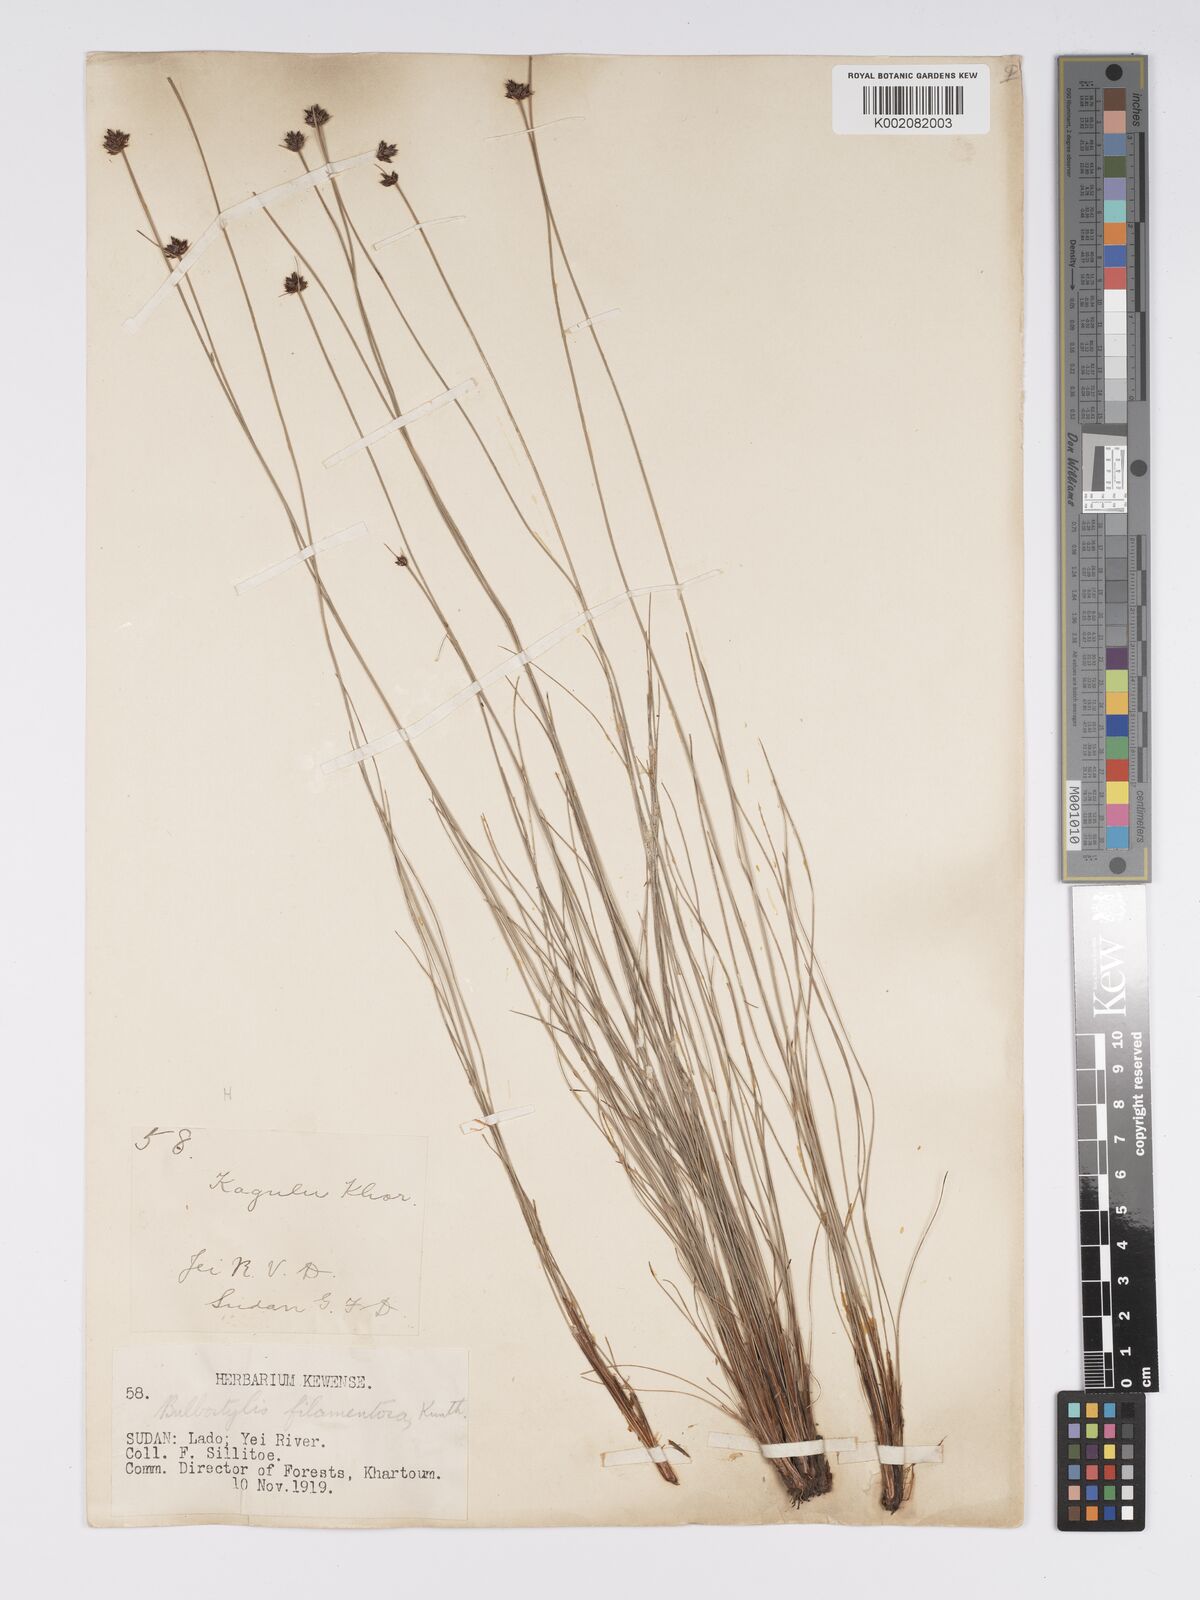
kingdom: Plantae
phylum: Tracheophyta
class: Liliopsida
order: Poales
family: Cyperaceae
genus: Bulbostylis
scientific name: Bulbostylis scabricaulis
